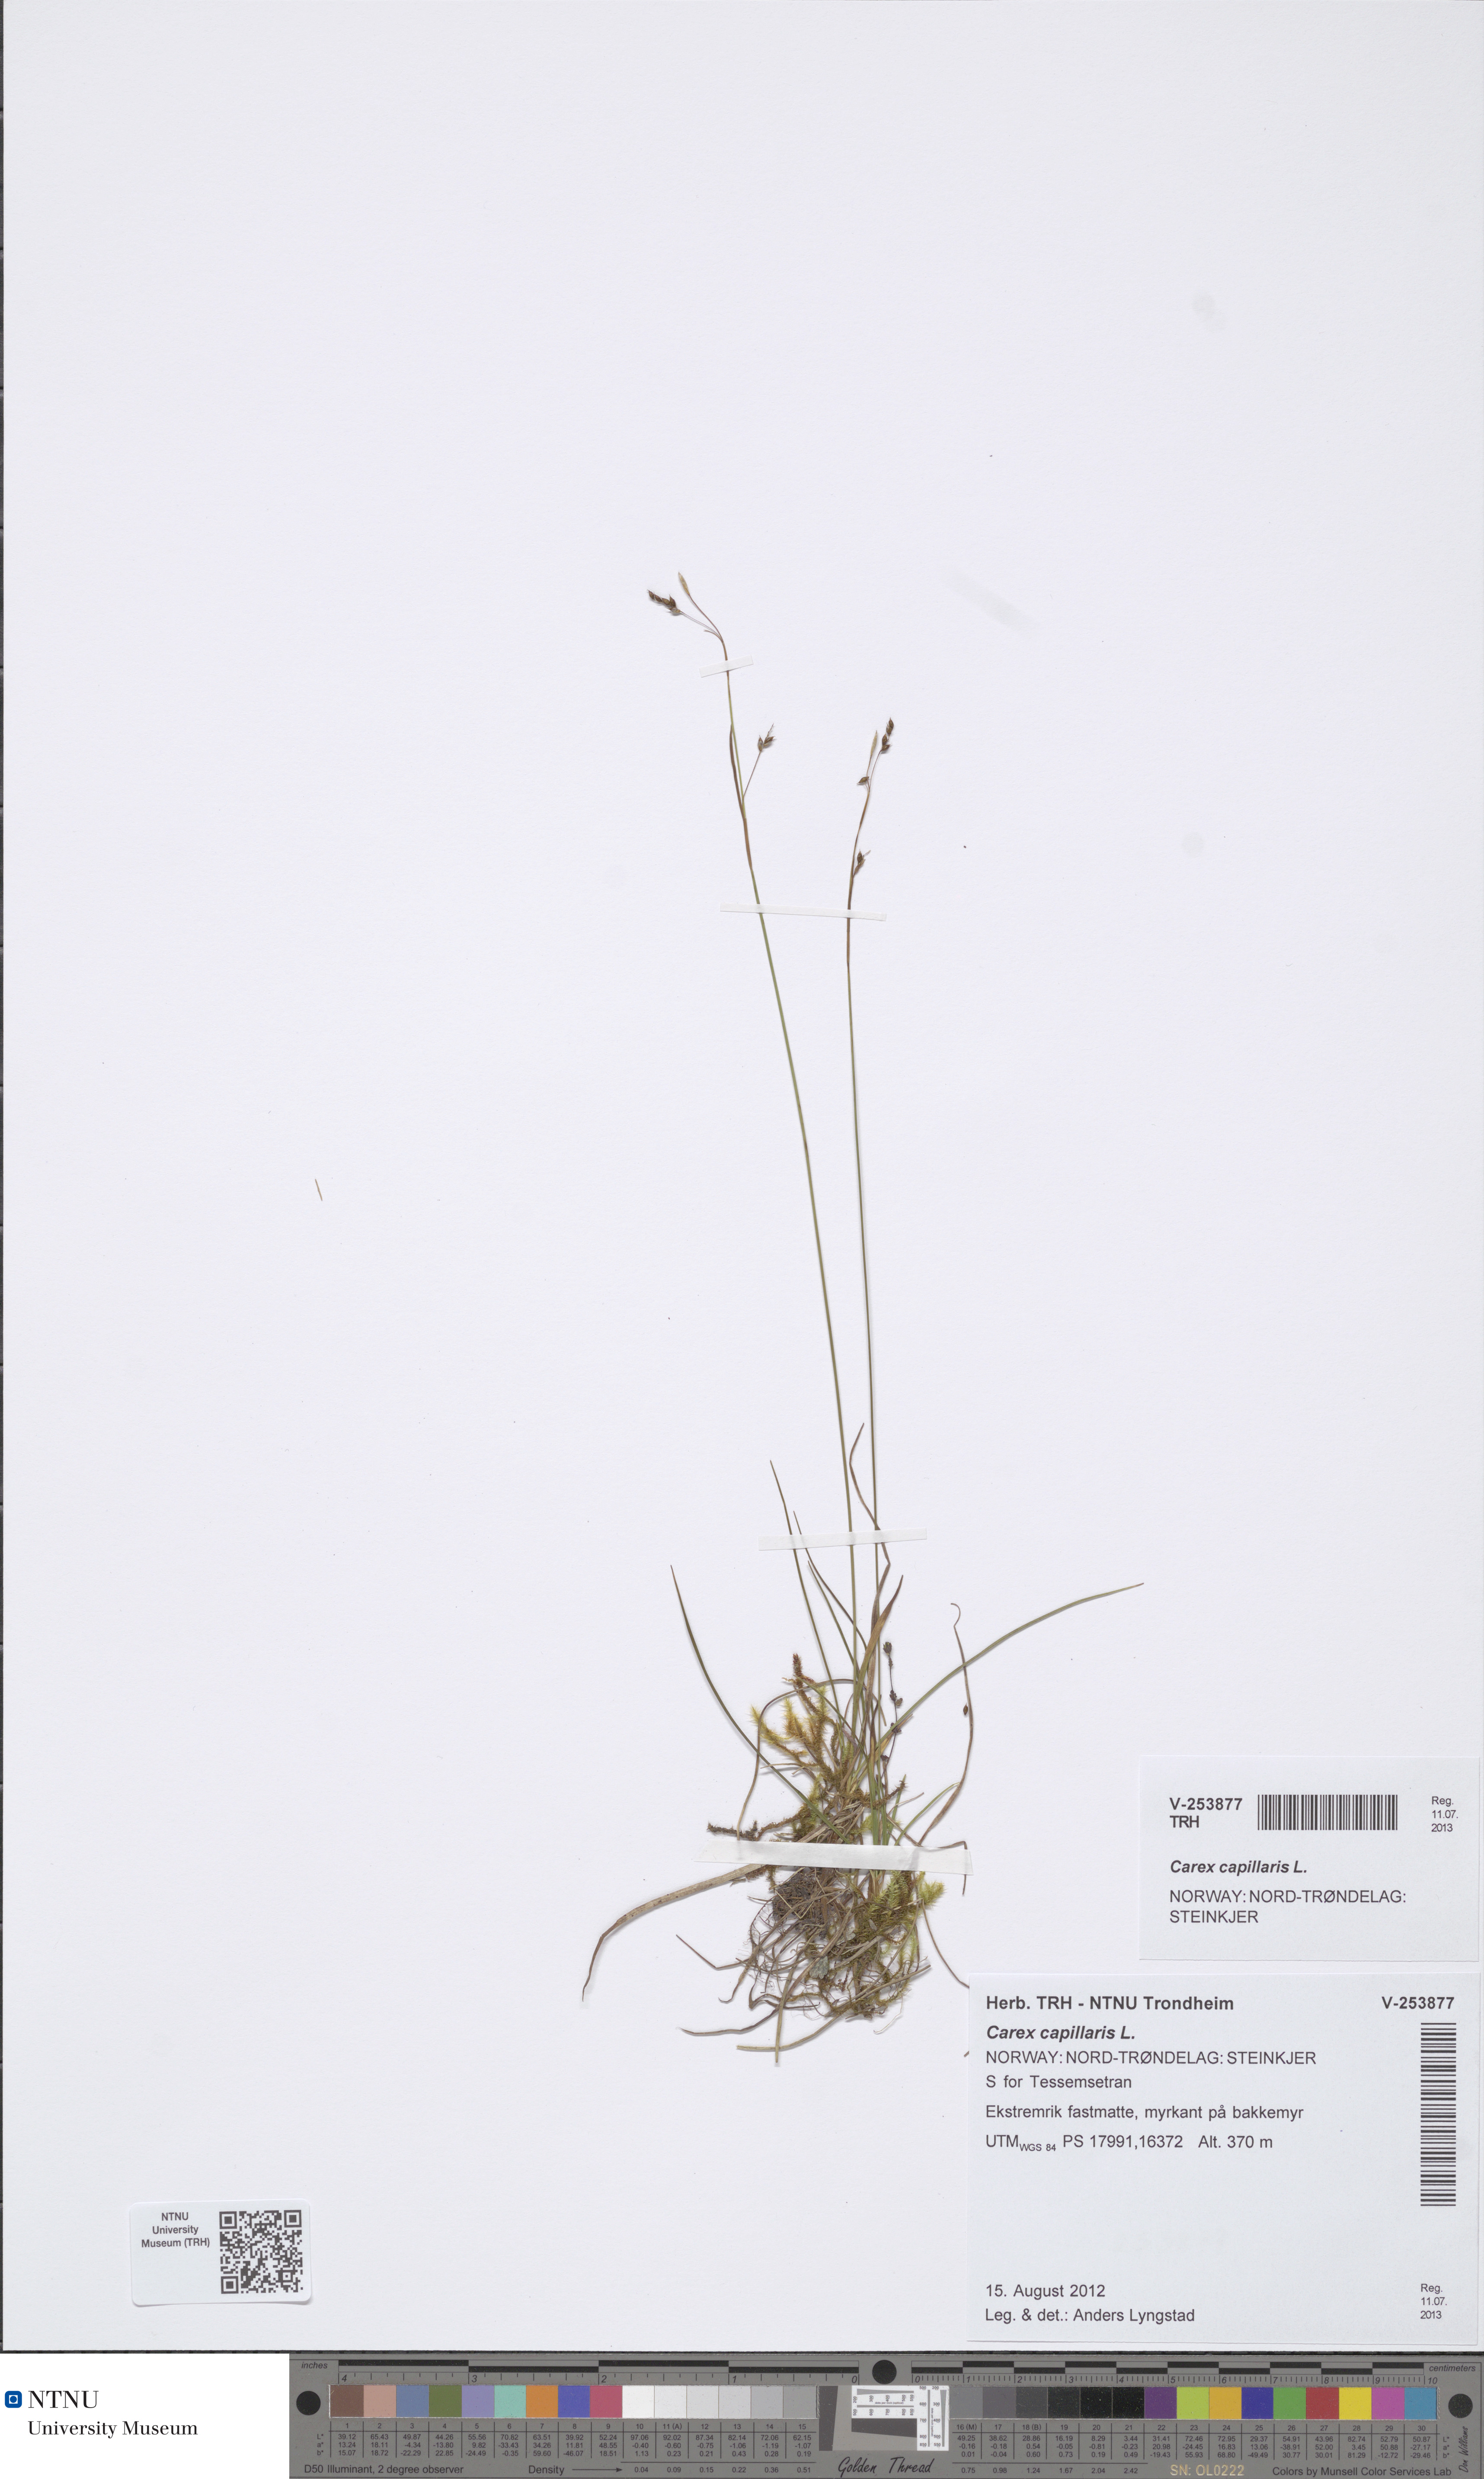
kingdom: Plantae
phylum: Tracheophyta
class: Liliopsida
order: Poales
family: Cyperaceae
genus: Carex
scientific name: Carex capillaris
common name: Hair sedge
